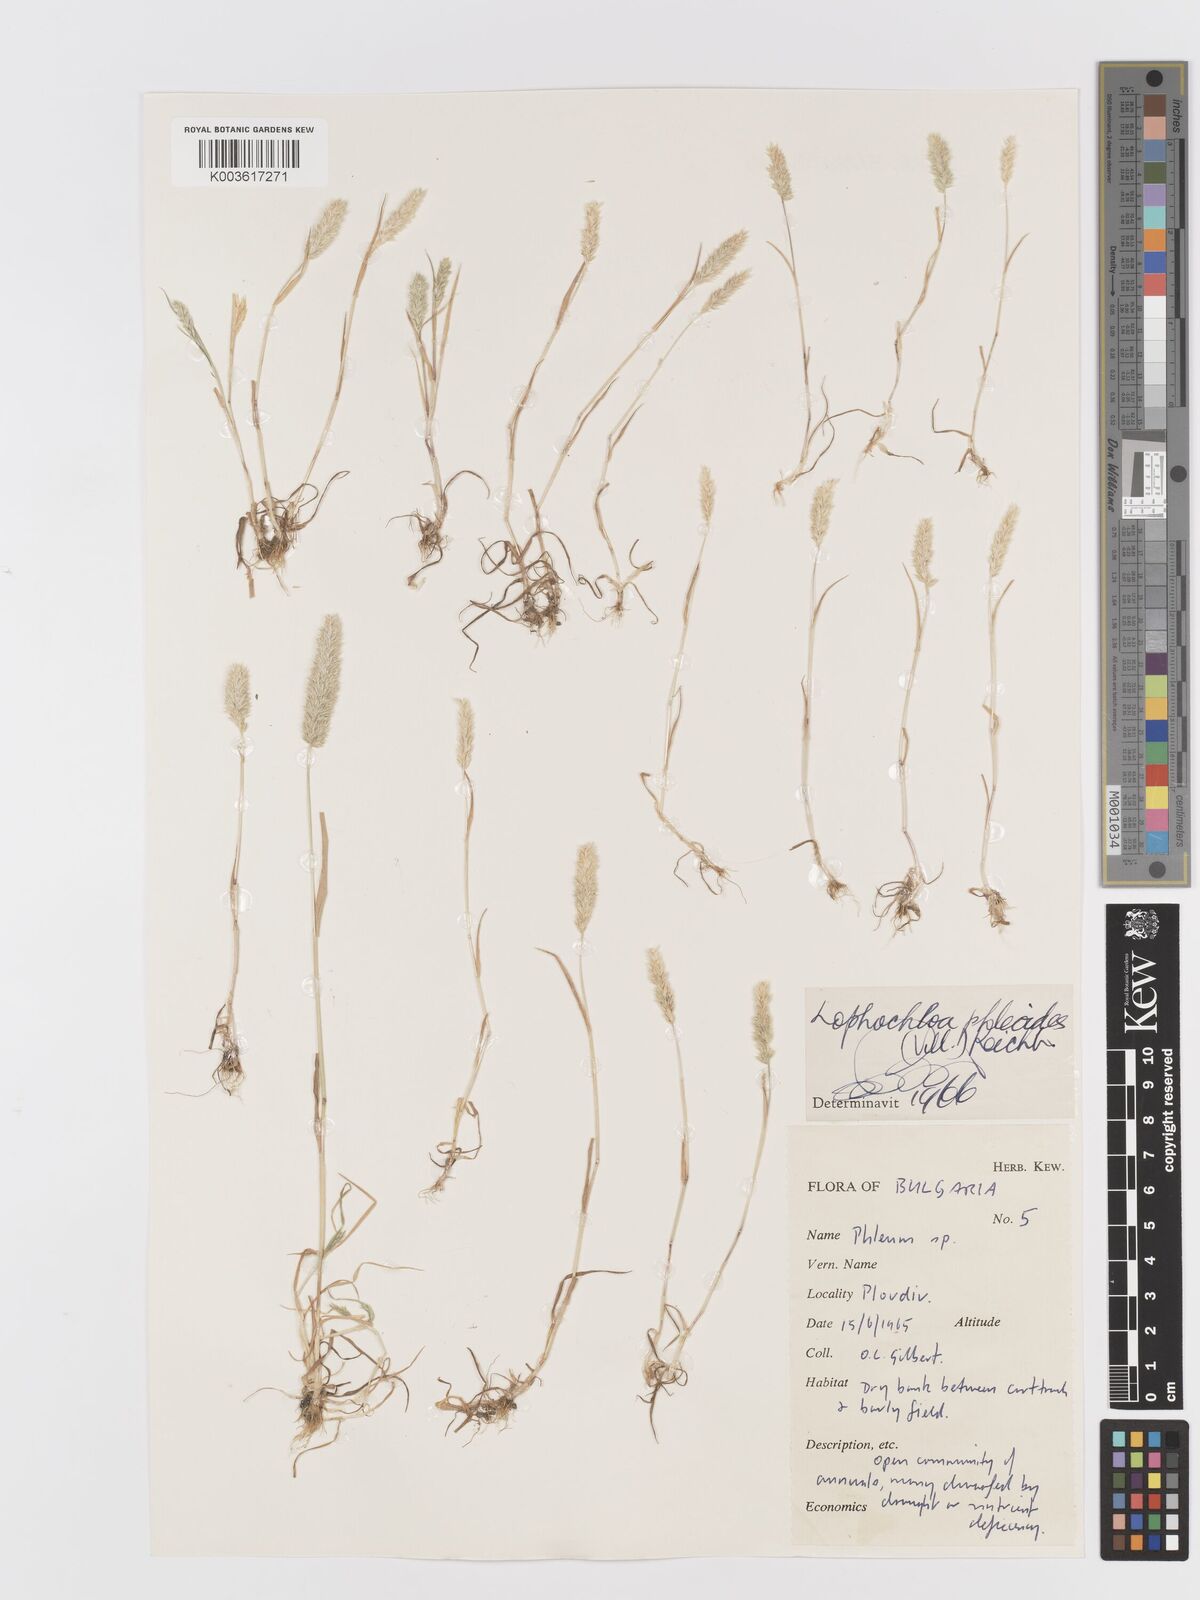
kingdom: Plantae
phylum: Tracheophyta
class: Liliopsida
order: Poales
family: Poaceae
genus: Koeleria
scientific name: Koeleria macrantha
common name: Crested hair-grass
